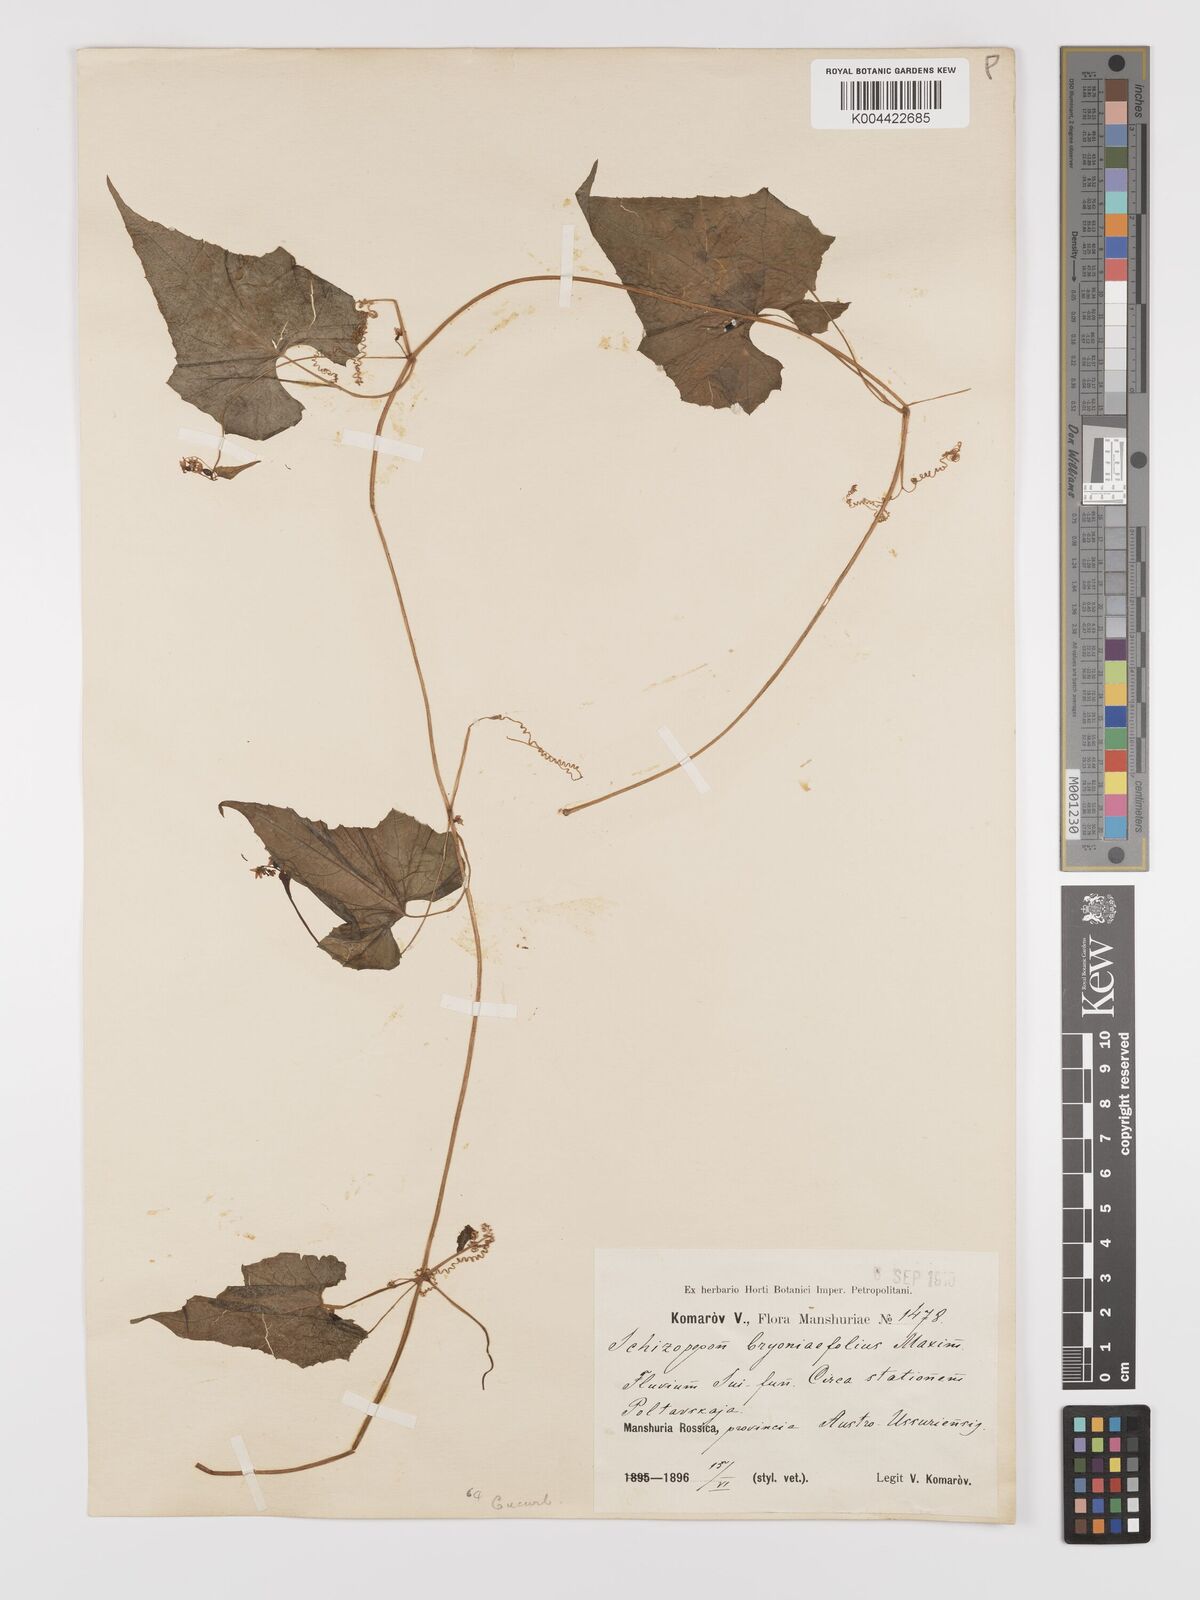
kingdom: Plantae
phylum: Tracheophyta
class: Magnoliopsida
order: Cucurbitales
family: Cucurbitaceae
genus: Schizopepon
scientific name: Schizopepon bryoniifolius
